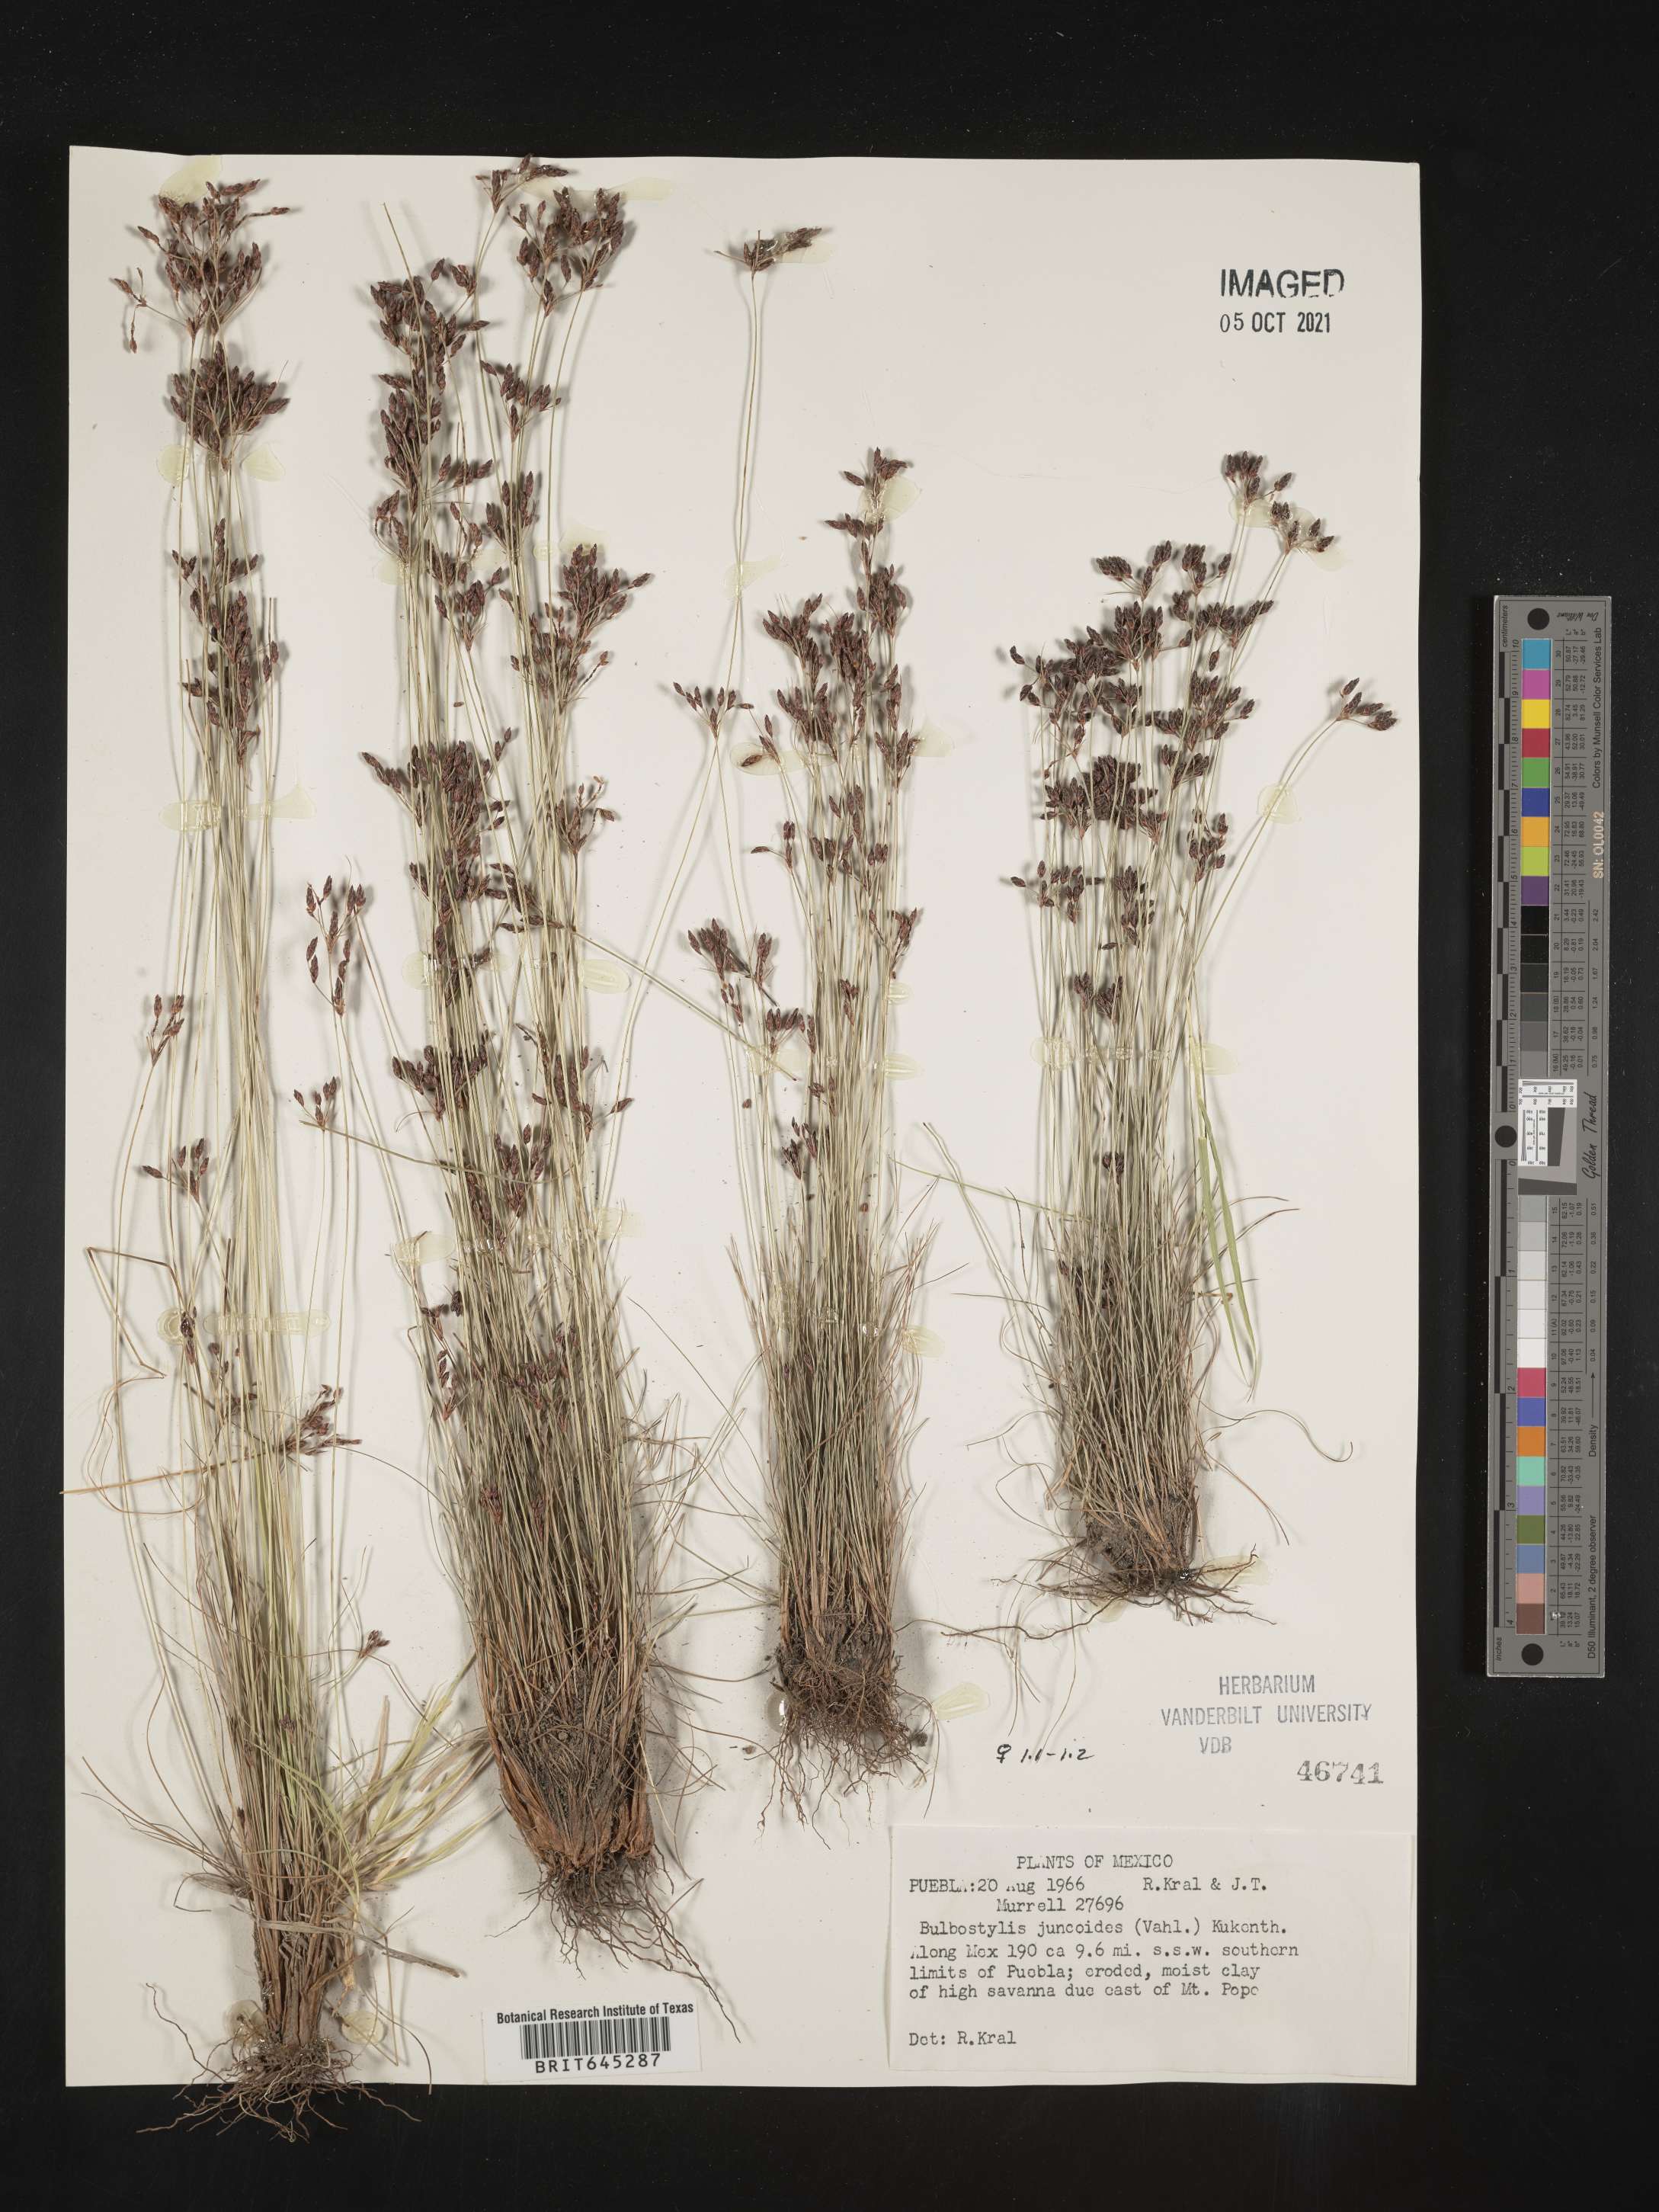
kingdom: Plantae
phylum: Tracheophyta
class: Liliopsida
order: Poales
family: Cyperaceae
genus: Bulbostylis
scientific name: Bulbostylis juncoides
